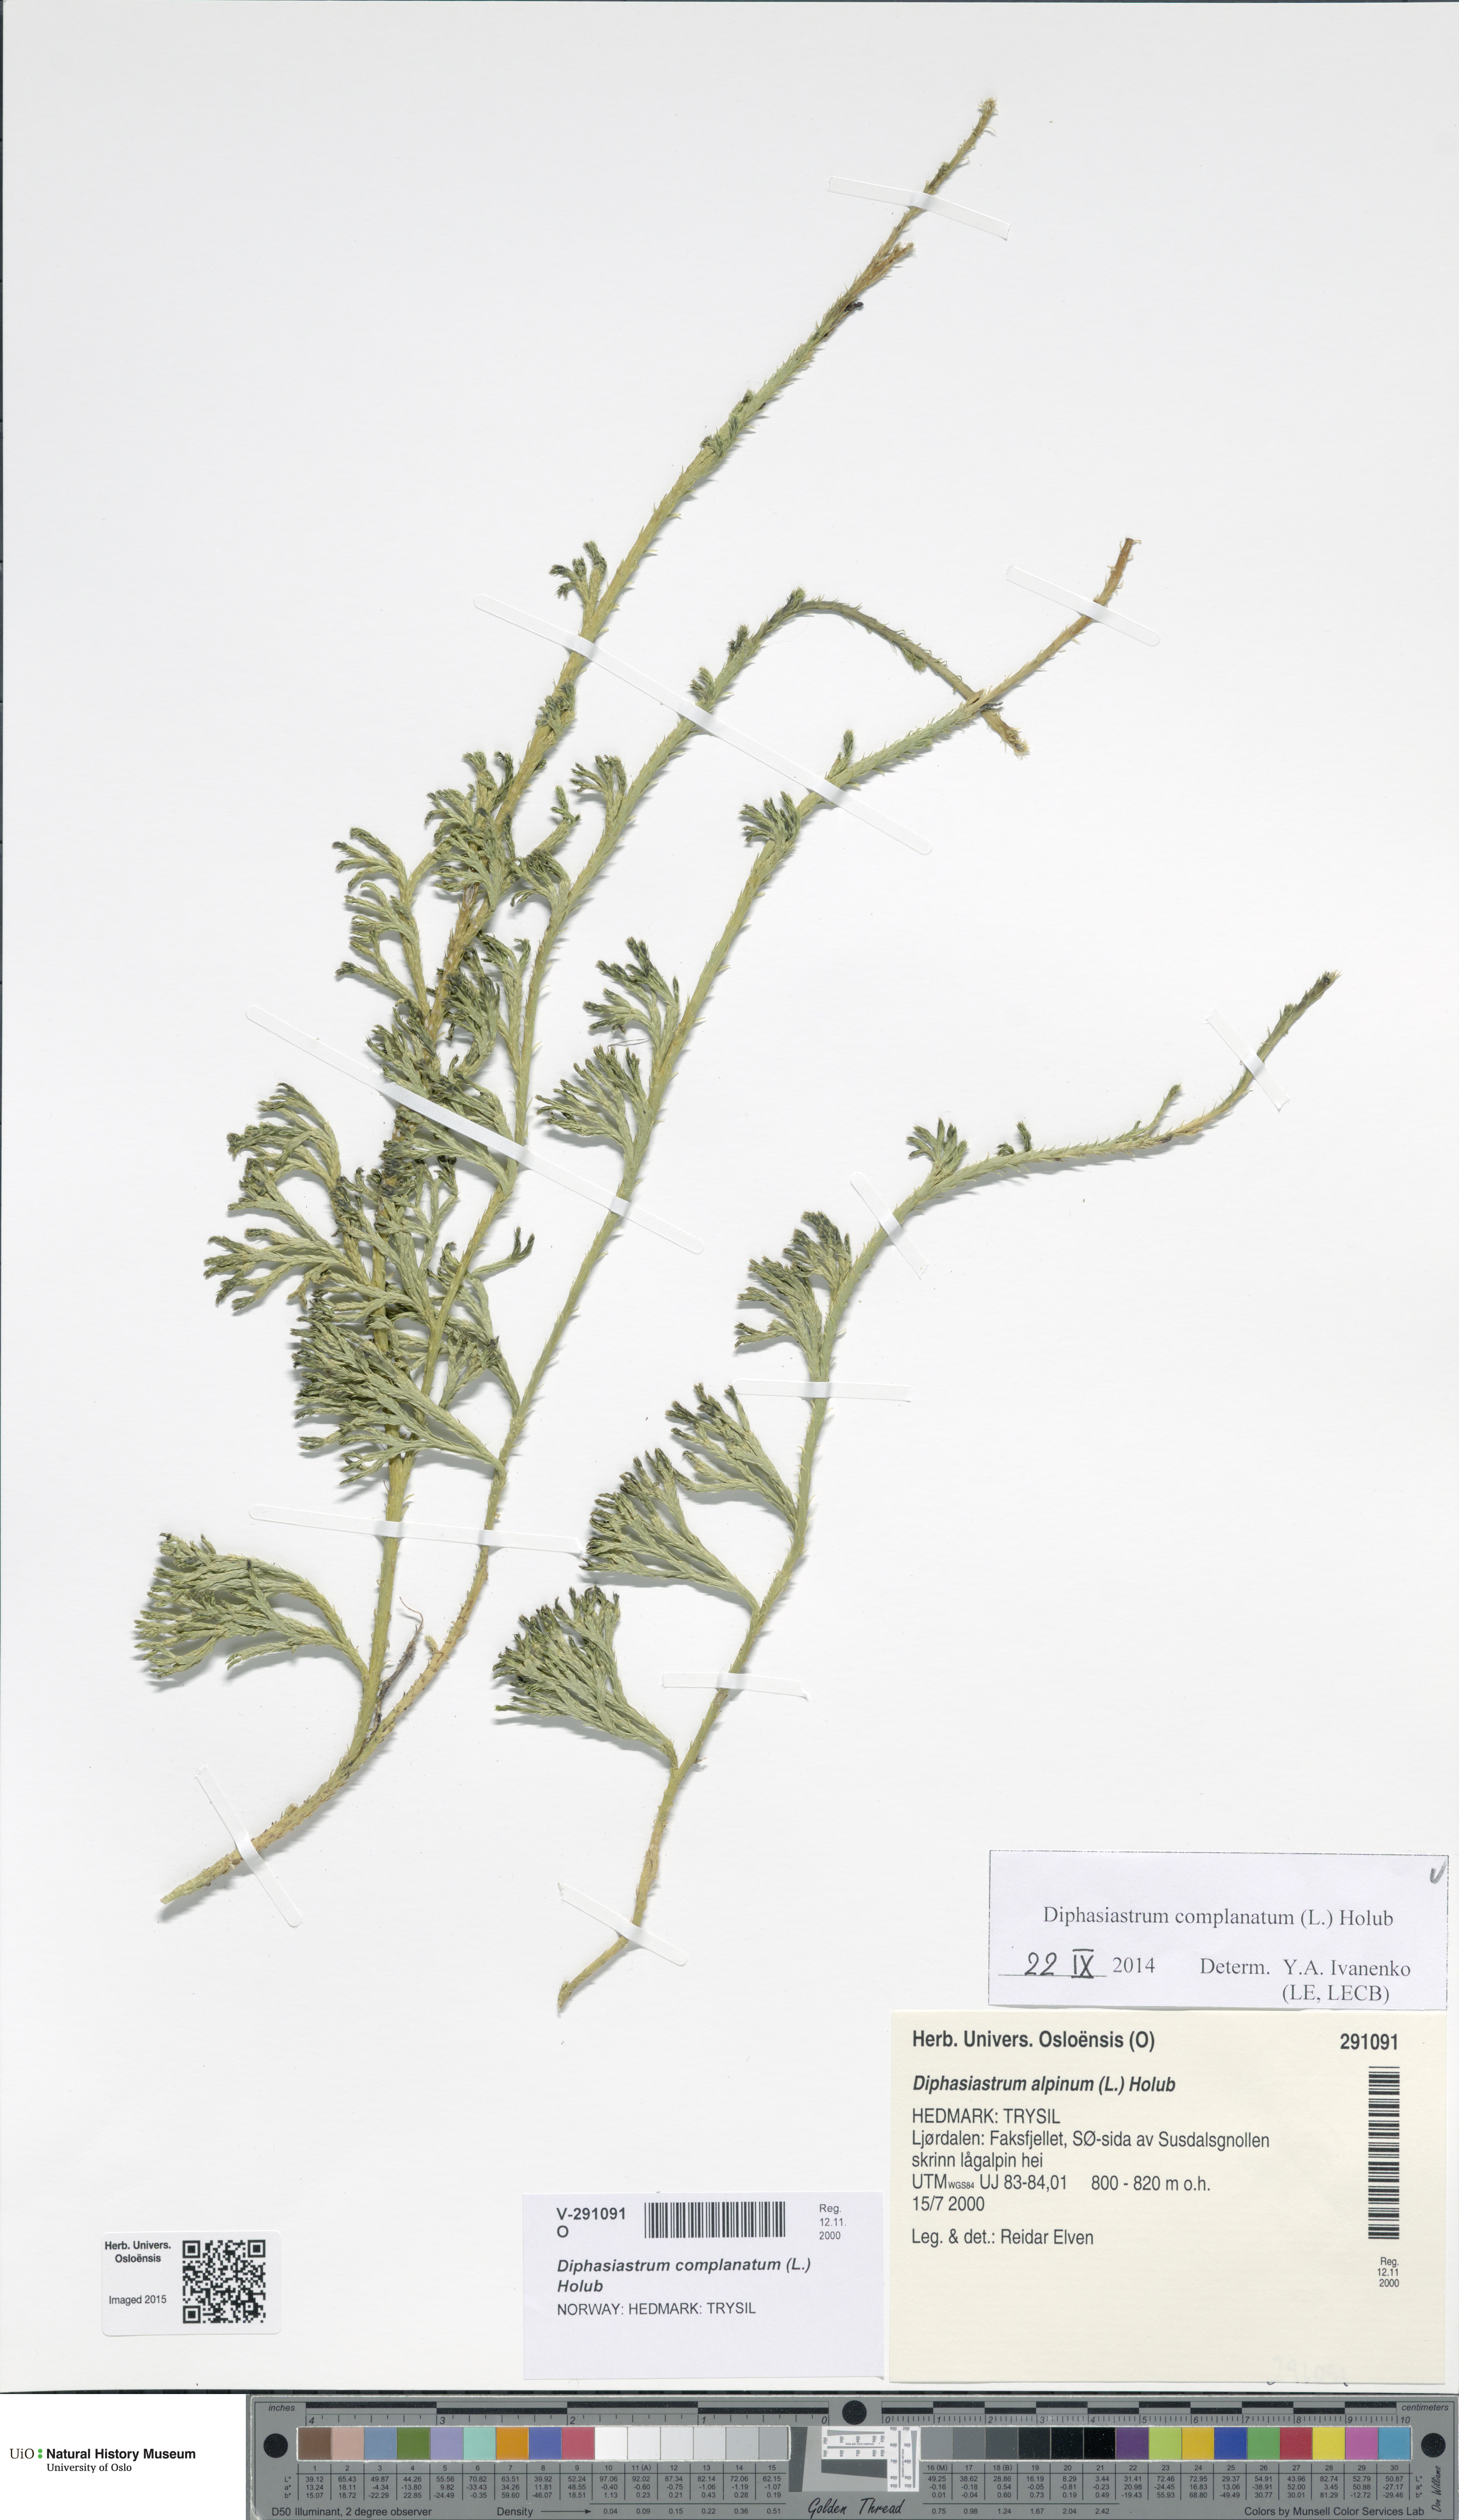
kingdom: Plantae
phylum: Tracheophyta
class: Lycopodiopsida
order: Lycopodiales
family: Lycopodiaceae
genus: Diphasiastrum
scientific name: Diphasiastrum complanatum
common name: Northern running-pine
